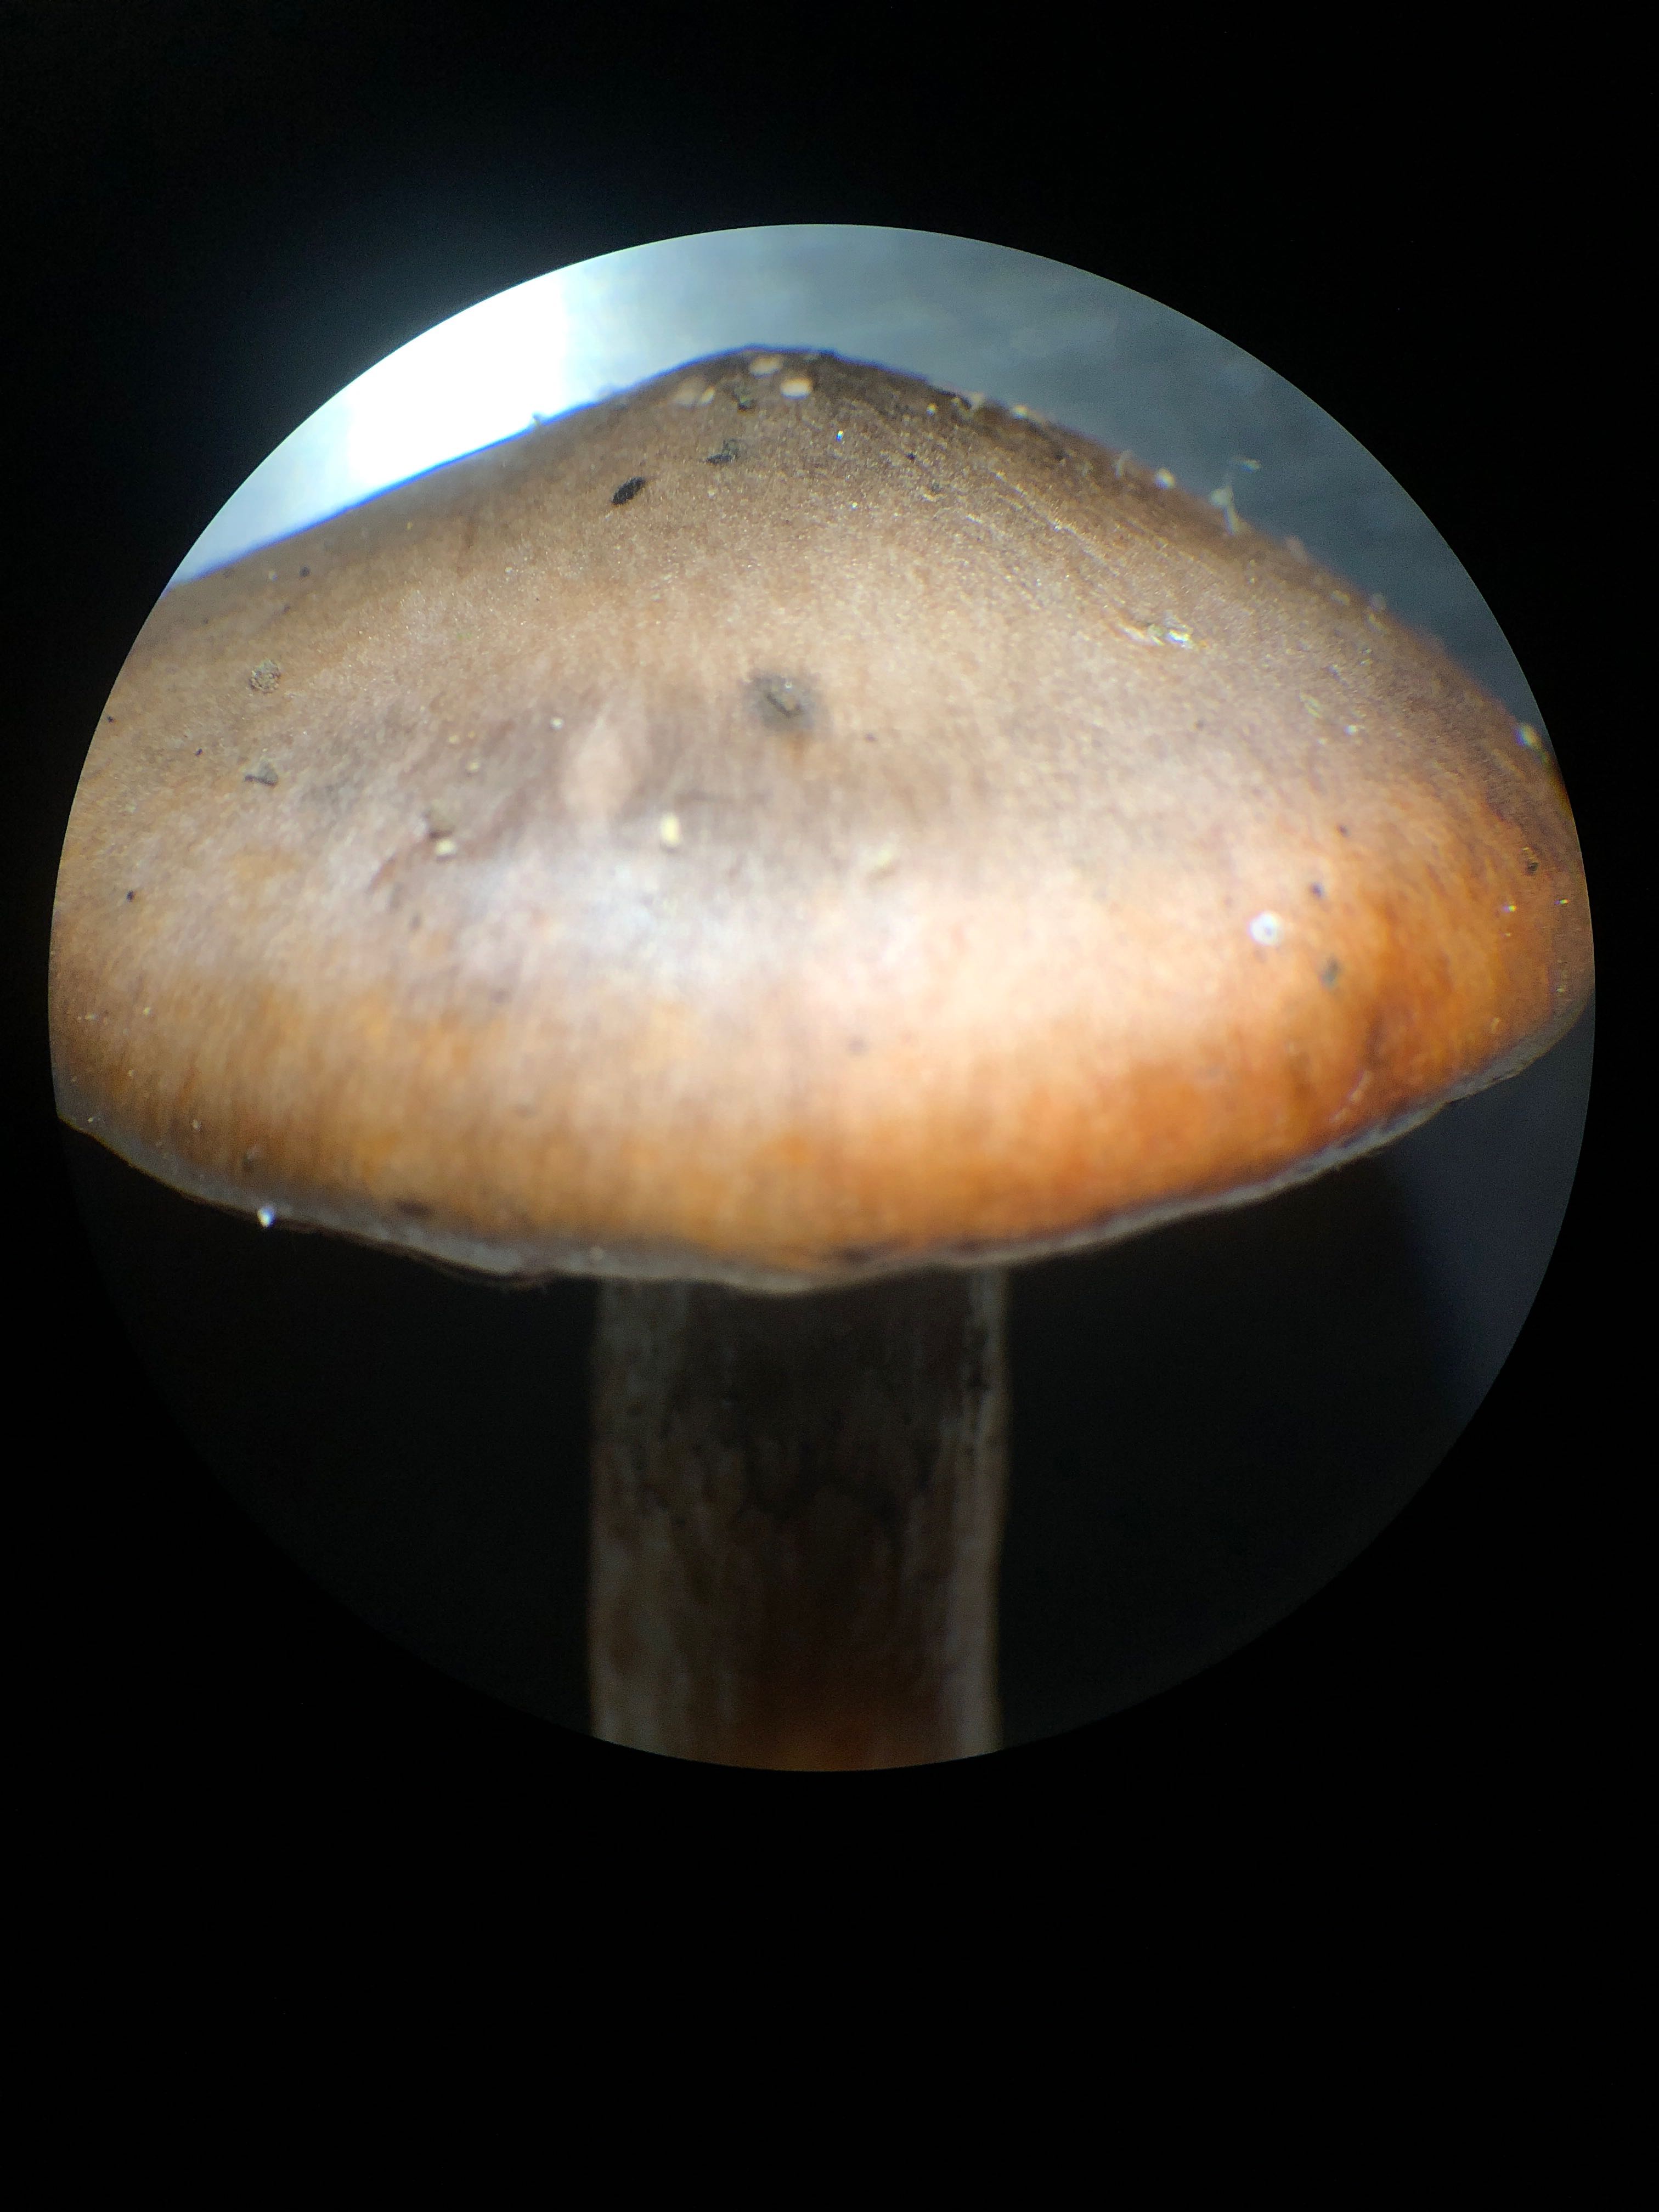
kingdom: Fungi
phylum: Basidiomycota
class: Agaricomycetes
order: Boletales
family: Gomphidiaceae
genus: Chroogomphus
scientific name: Chroogomphus rutilus
